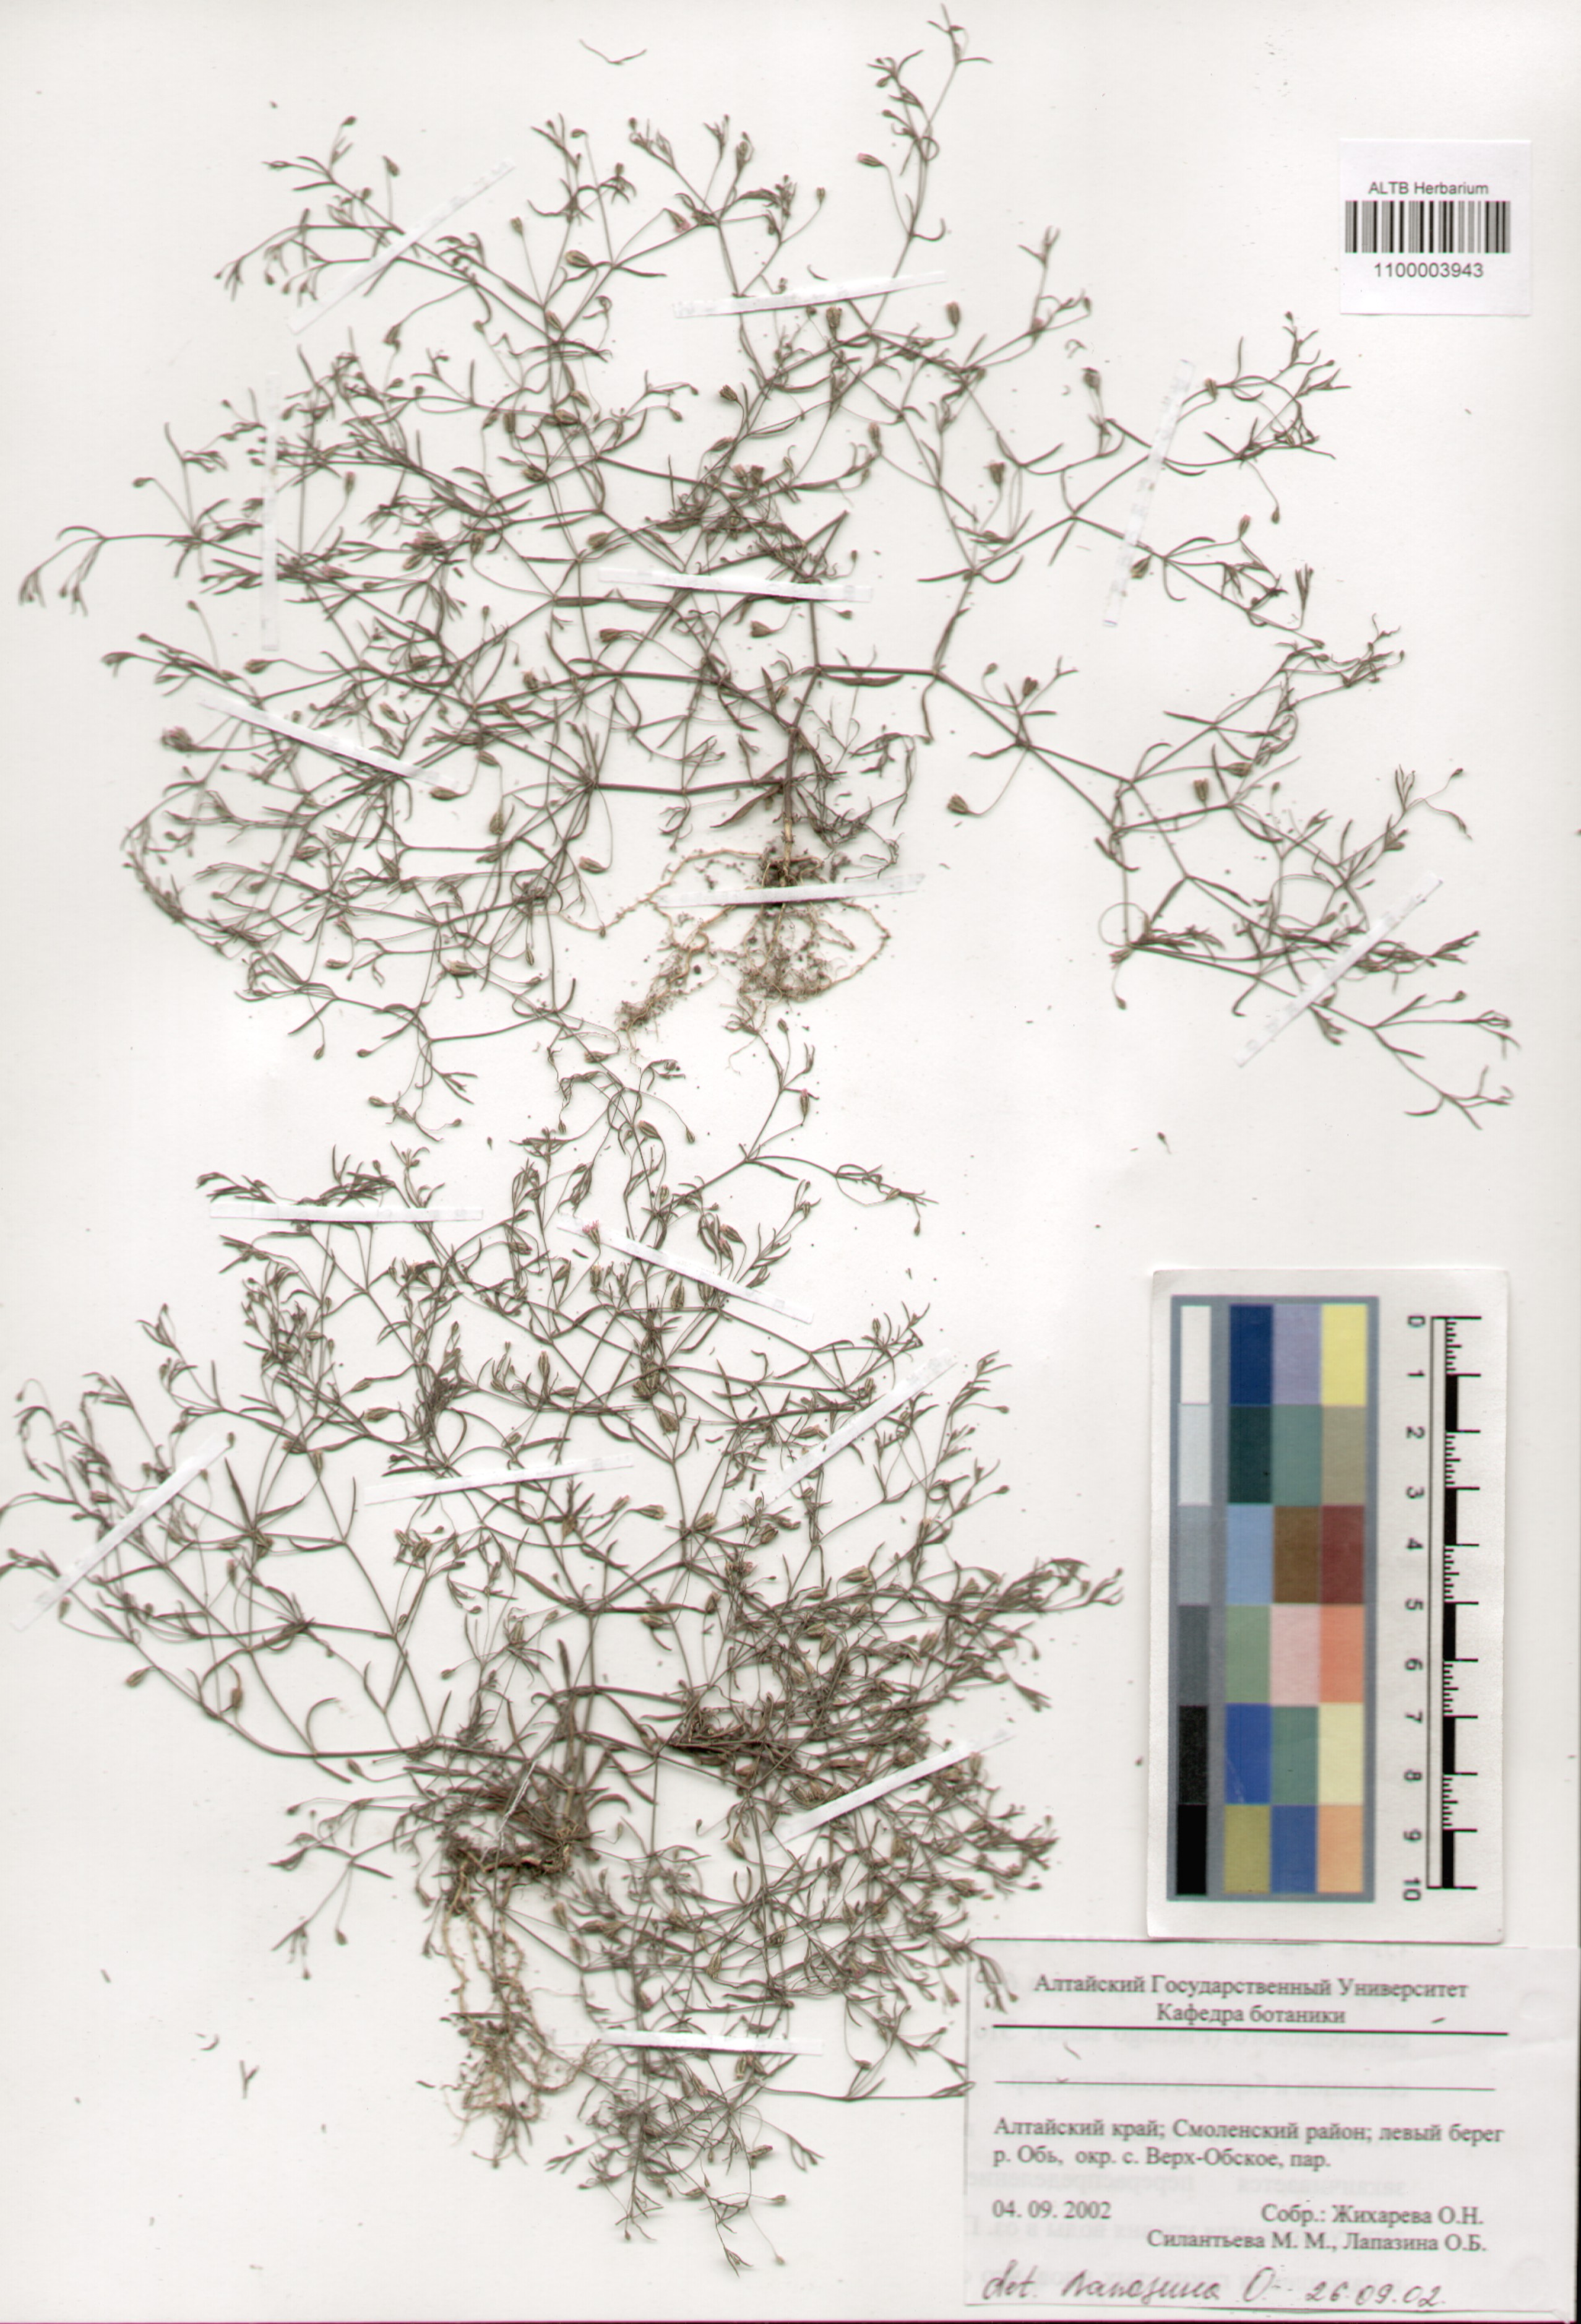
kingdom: Plantae
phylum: Tracheophyta
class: Magnoliopsida
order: Caryophyllales
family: Caryophyllaceae
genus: Psammophiliella
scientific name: Psammophiliella muralis
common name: Cushion baby's-breath
